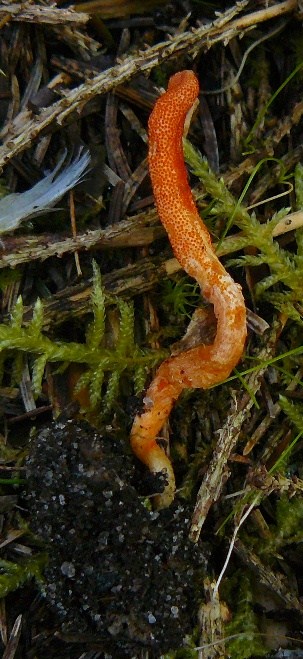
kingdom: Fungi
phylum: Ascomycota
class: Sordariomycetes
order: Hypocreales
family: Cordycipitaceae
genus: Cordyceps
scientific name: Cordyceps militaris
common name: puppe-snyltekølle
